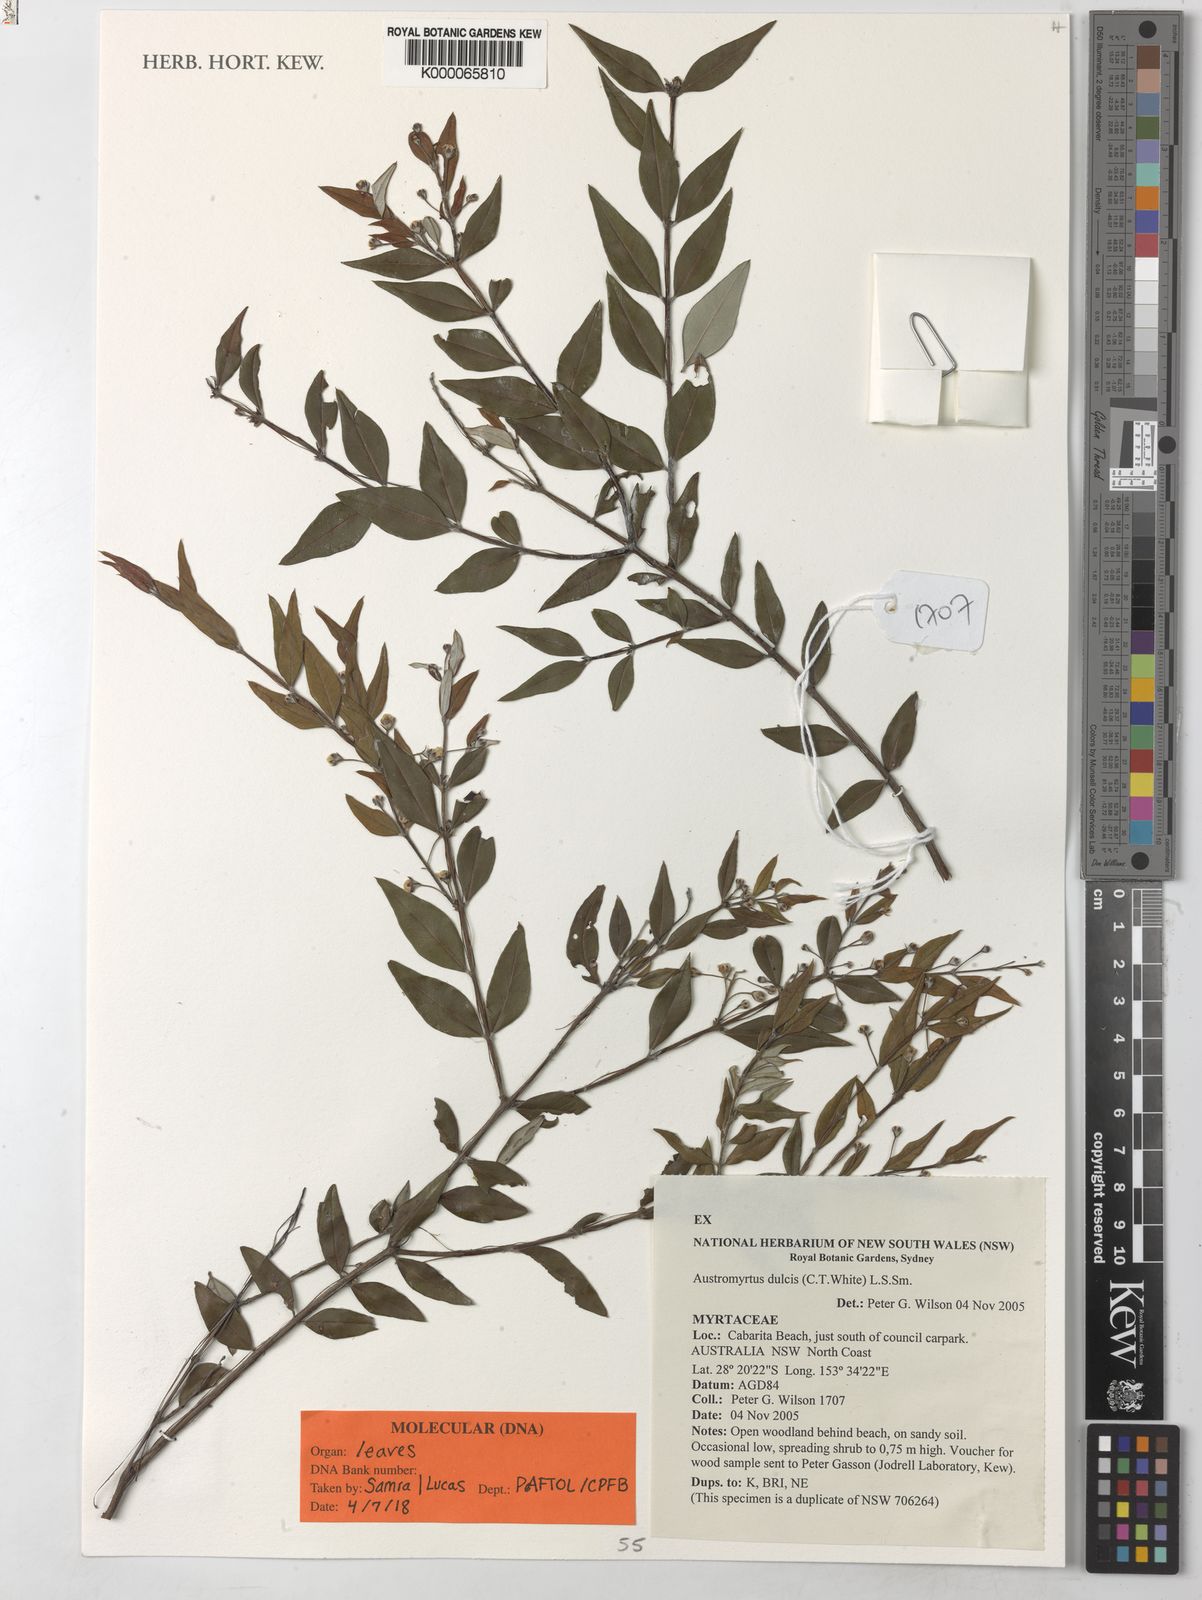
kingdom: Plantae
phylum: Tracheophyta
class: Magnoliopsida
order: Myrtales
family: Myrtaceae
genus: Austromyrtus
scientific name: Austromyrtus dulcis
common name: Migden-berry
